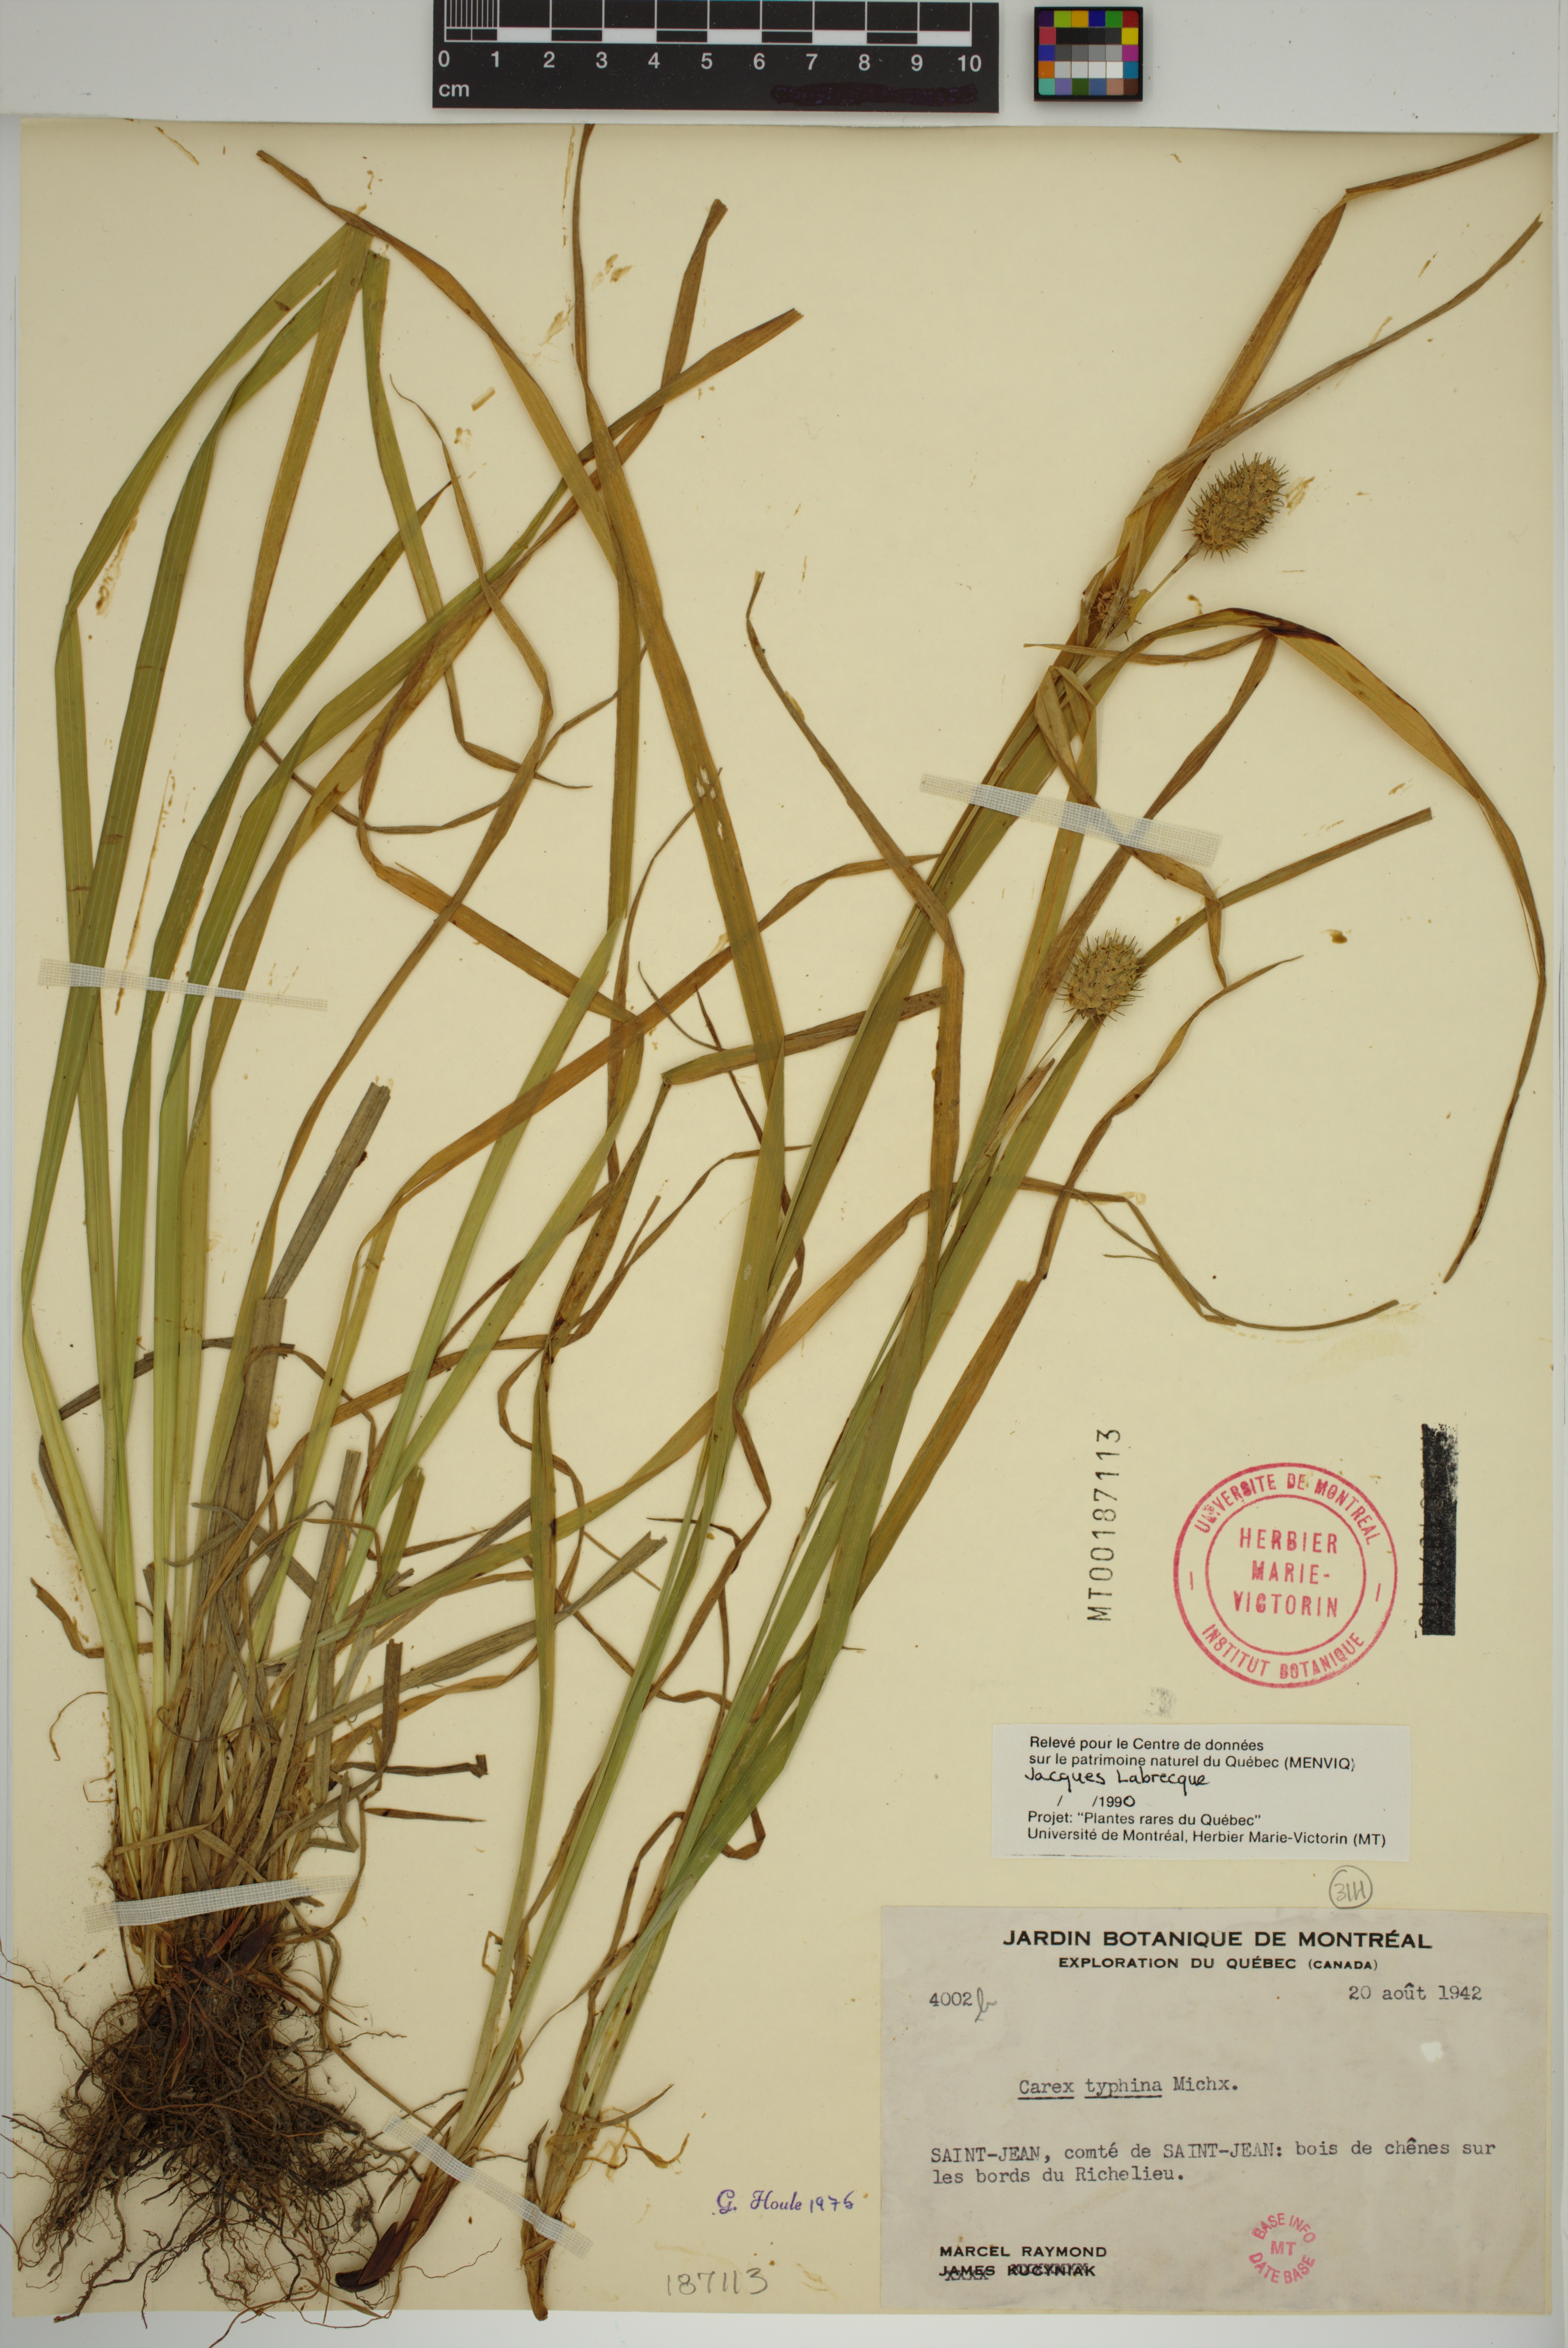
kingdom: Plantae
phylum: Tracheophyta
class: Liliopsida
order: Poales
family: Cyperaceae
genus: Carex
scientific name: Carex typhina
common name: Cattail sedge
